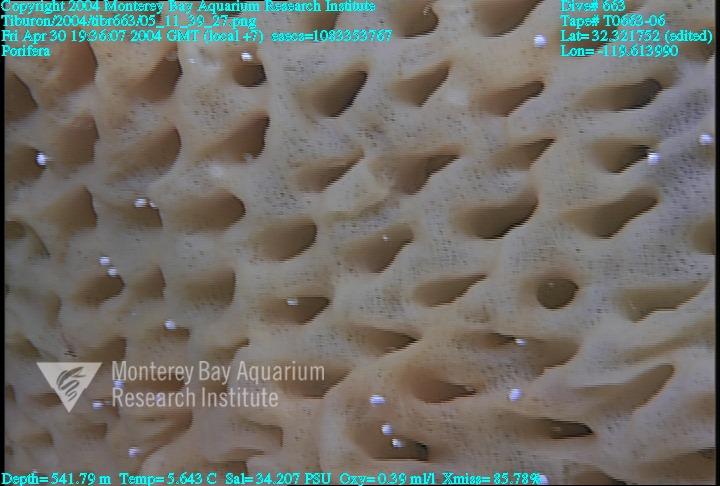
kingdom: Animalia
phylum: Porifera
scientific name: Porifera
